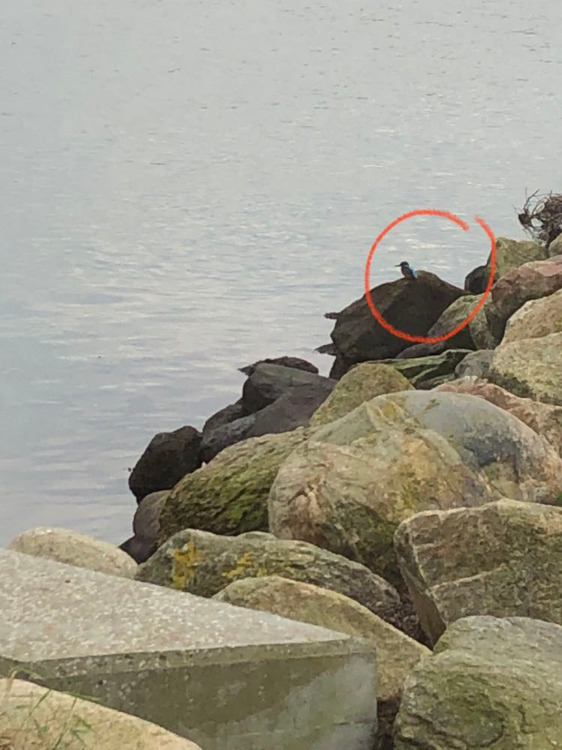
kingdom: Animalia
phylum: Chordata
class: Aves
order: Coraciiformes
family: Alcedinidae
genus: Alcedo
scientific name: Alcedo atthis
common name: Isfugl
